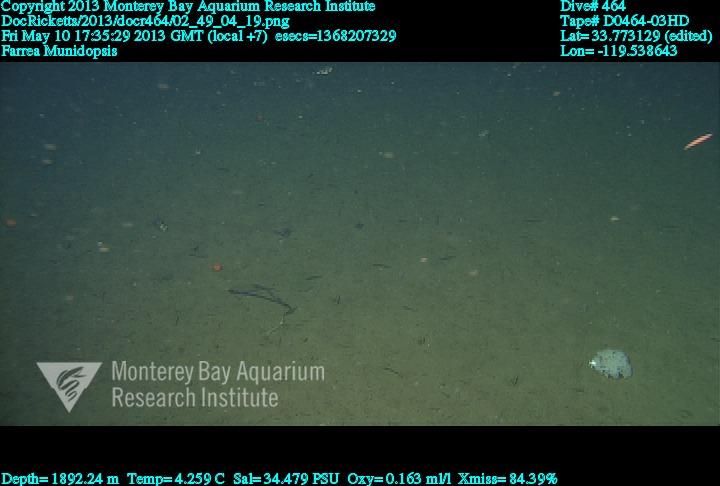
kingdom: Animalia
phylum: Porifera
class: Hexactinellida
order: Sceptrulophora
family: Farreidae
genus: Farrea
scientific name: Farrea
